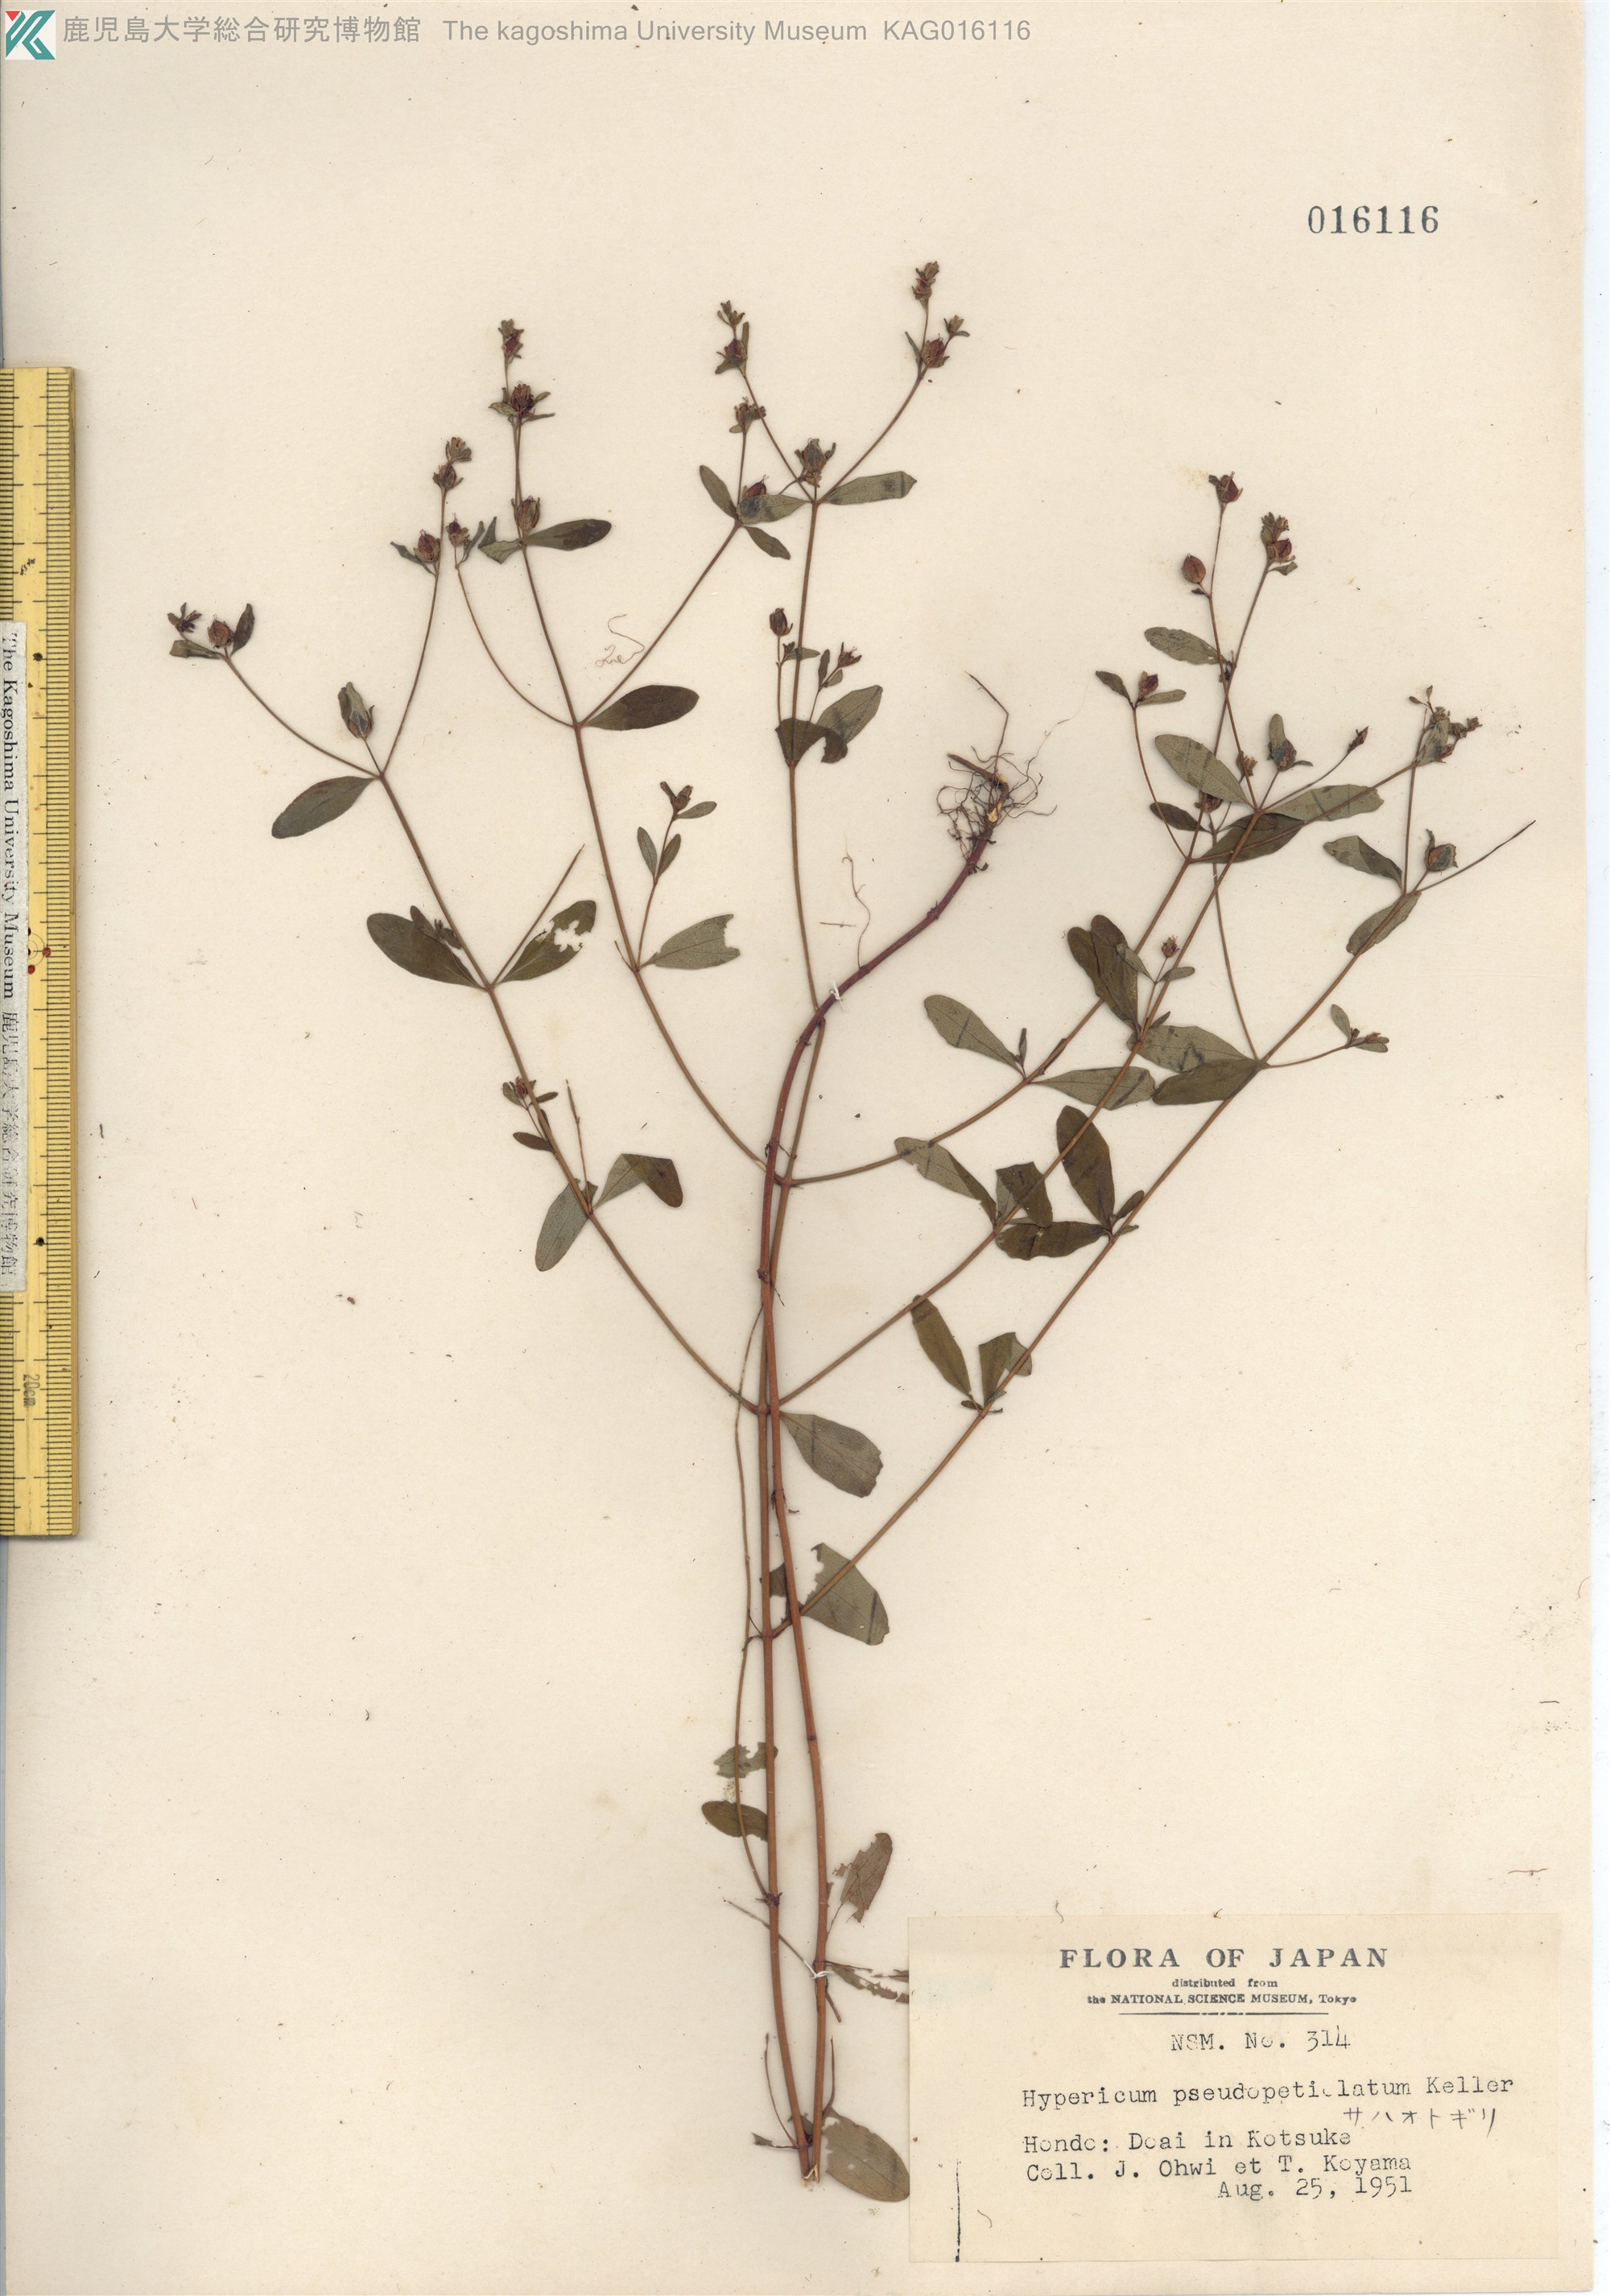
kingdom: Plantae
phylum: Tracheophyta
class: Magnoliopsida
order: Malpighiales
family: Hypericaceae
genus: Hypericum
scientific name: Hypericum pseudopetiolatum
